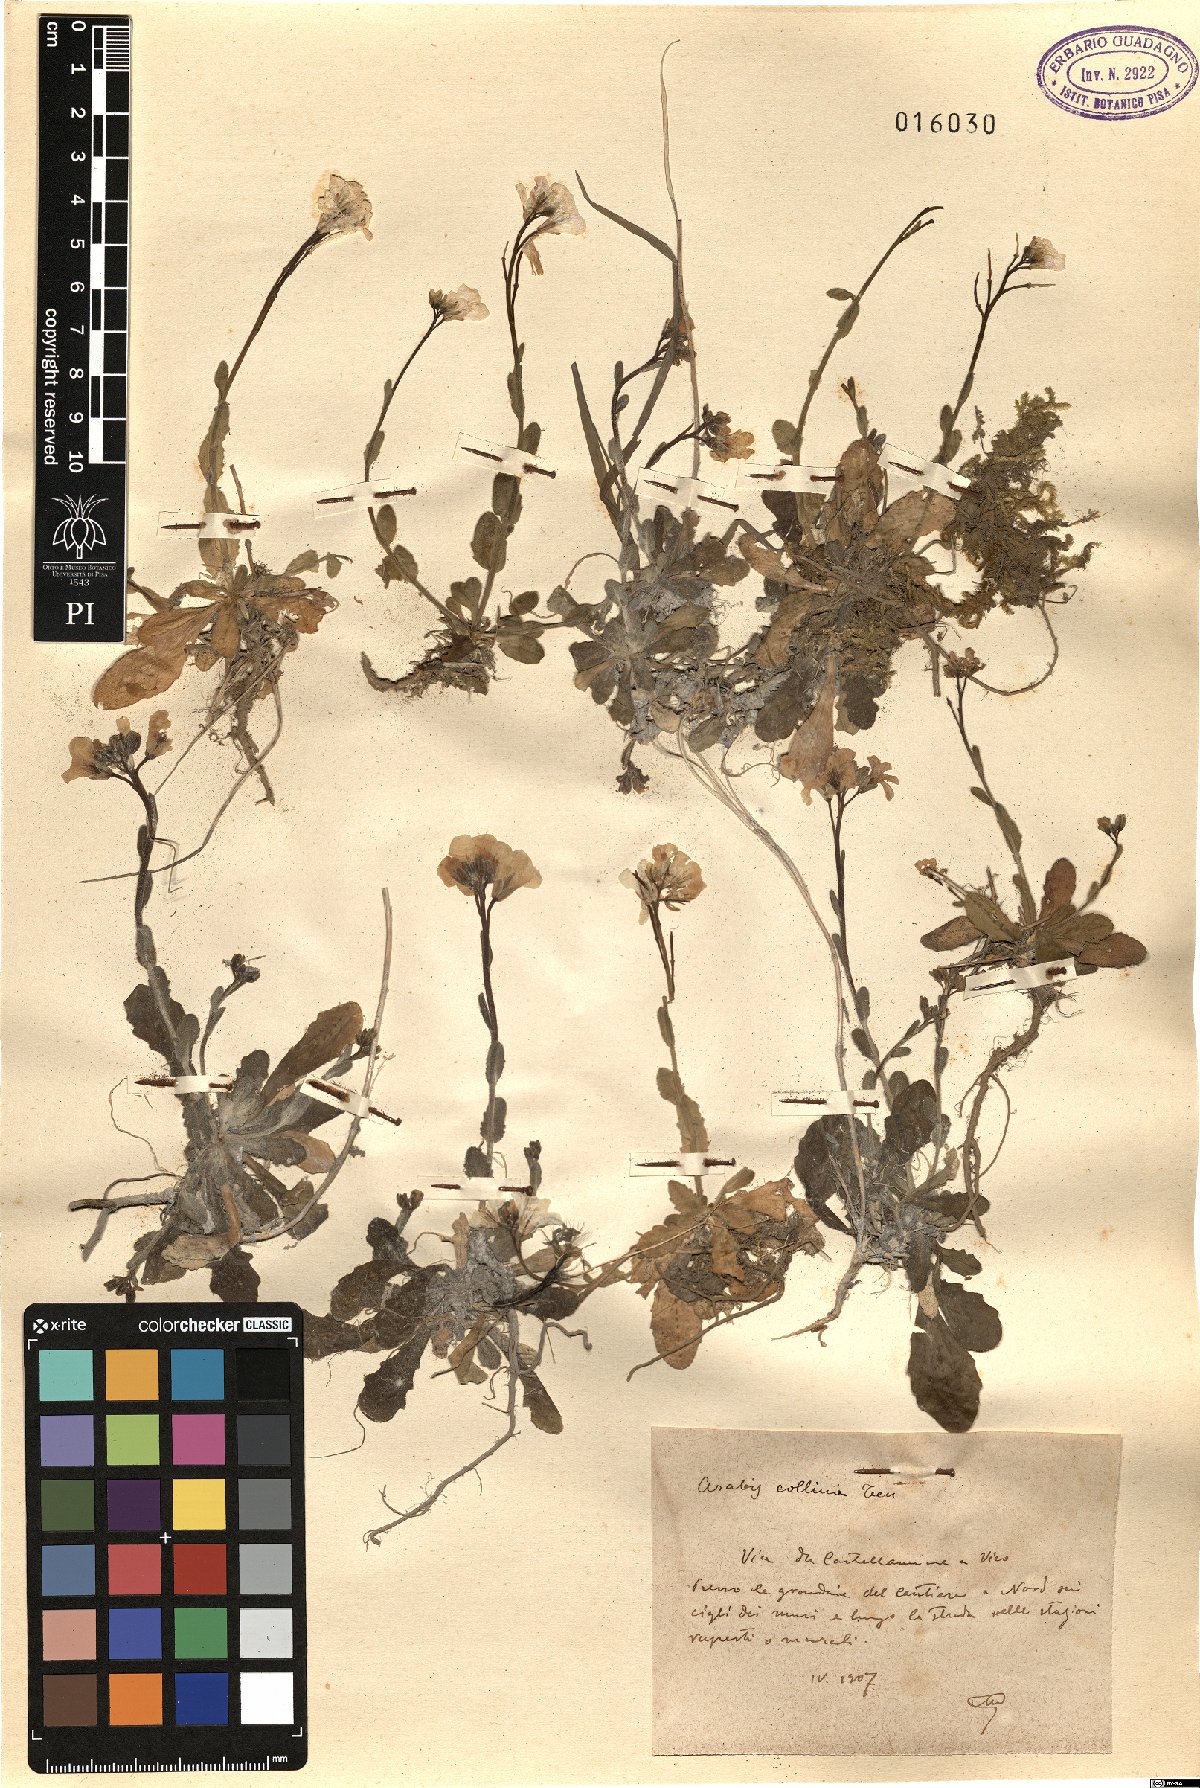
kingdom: Plantae
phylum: Tracheophyta
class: Magnoliopsida
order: Brassicales
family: Brassicaceae
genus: Arabis
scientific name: Arabis collina
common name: Rosy cress
